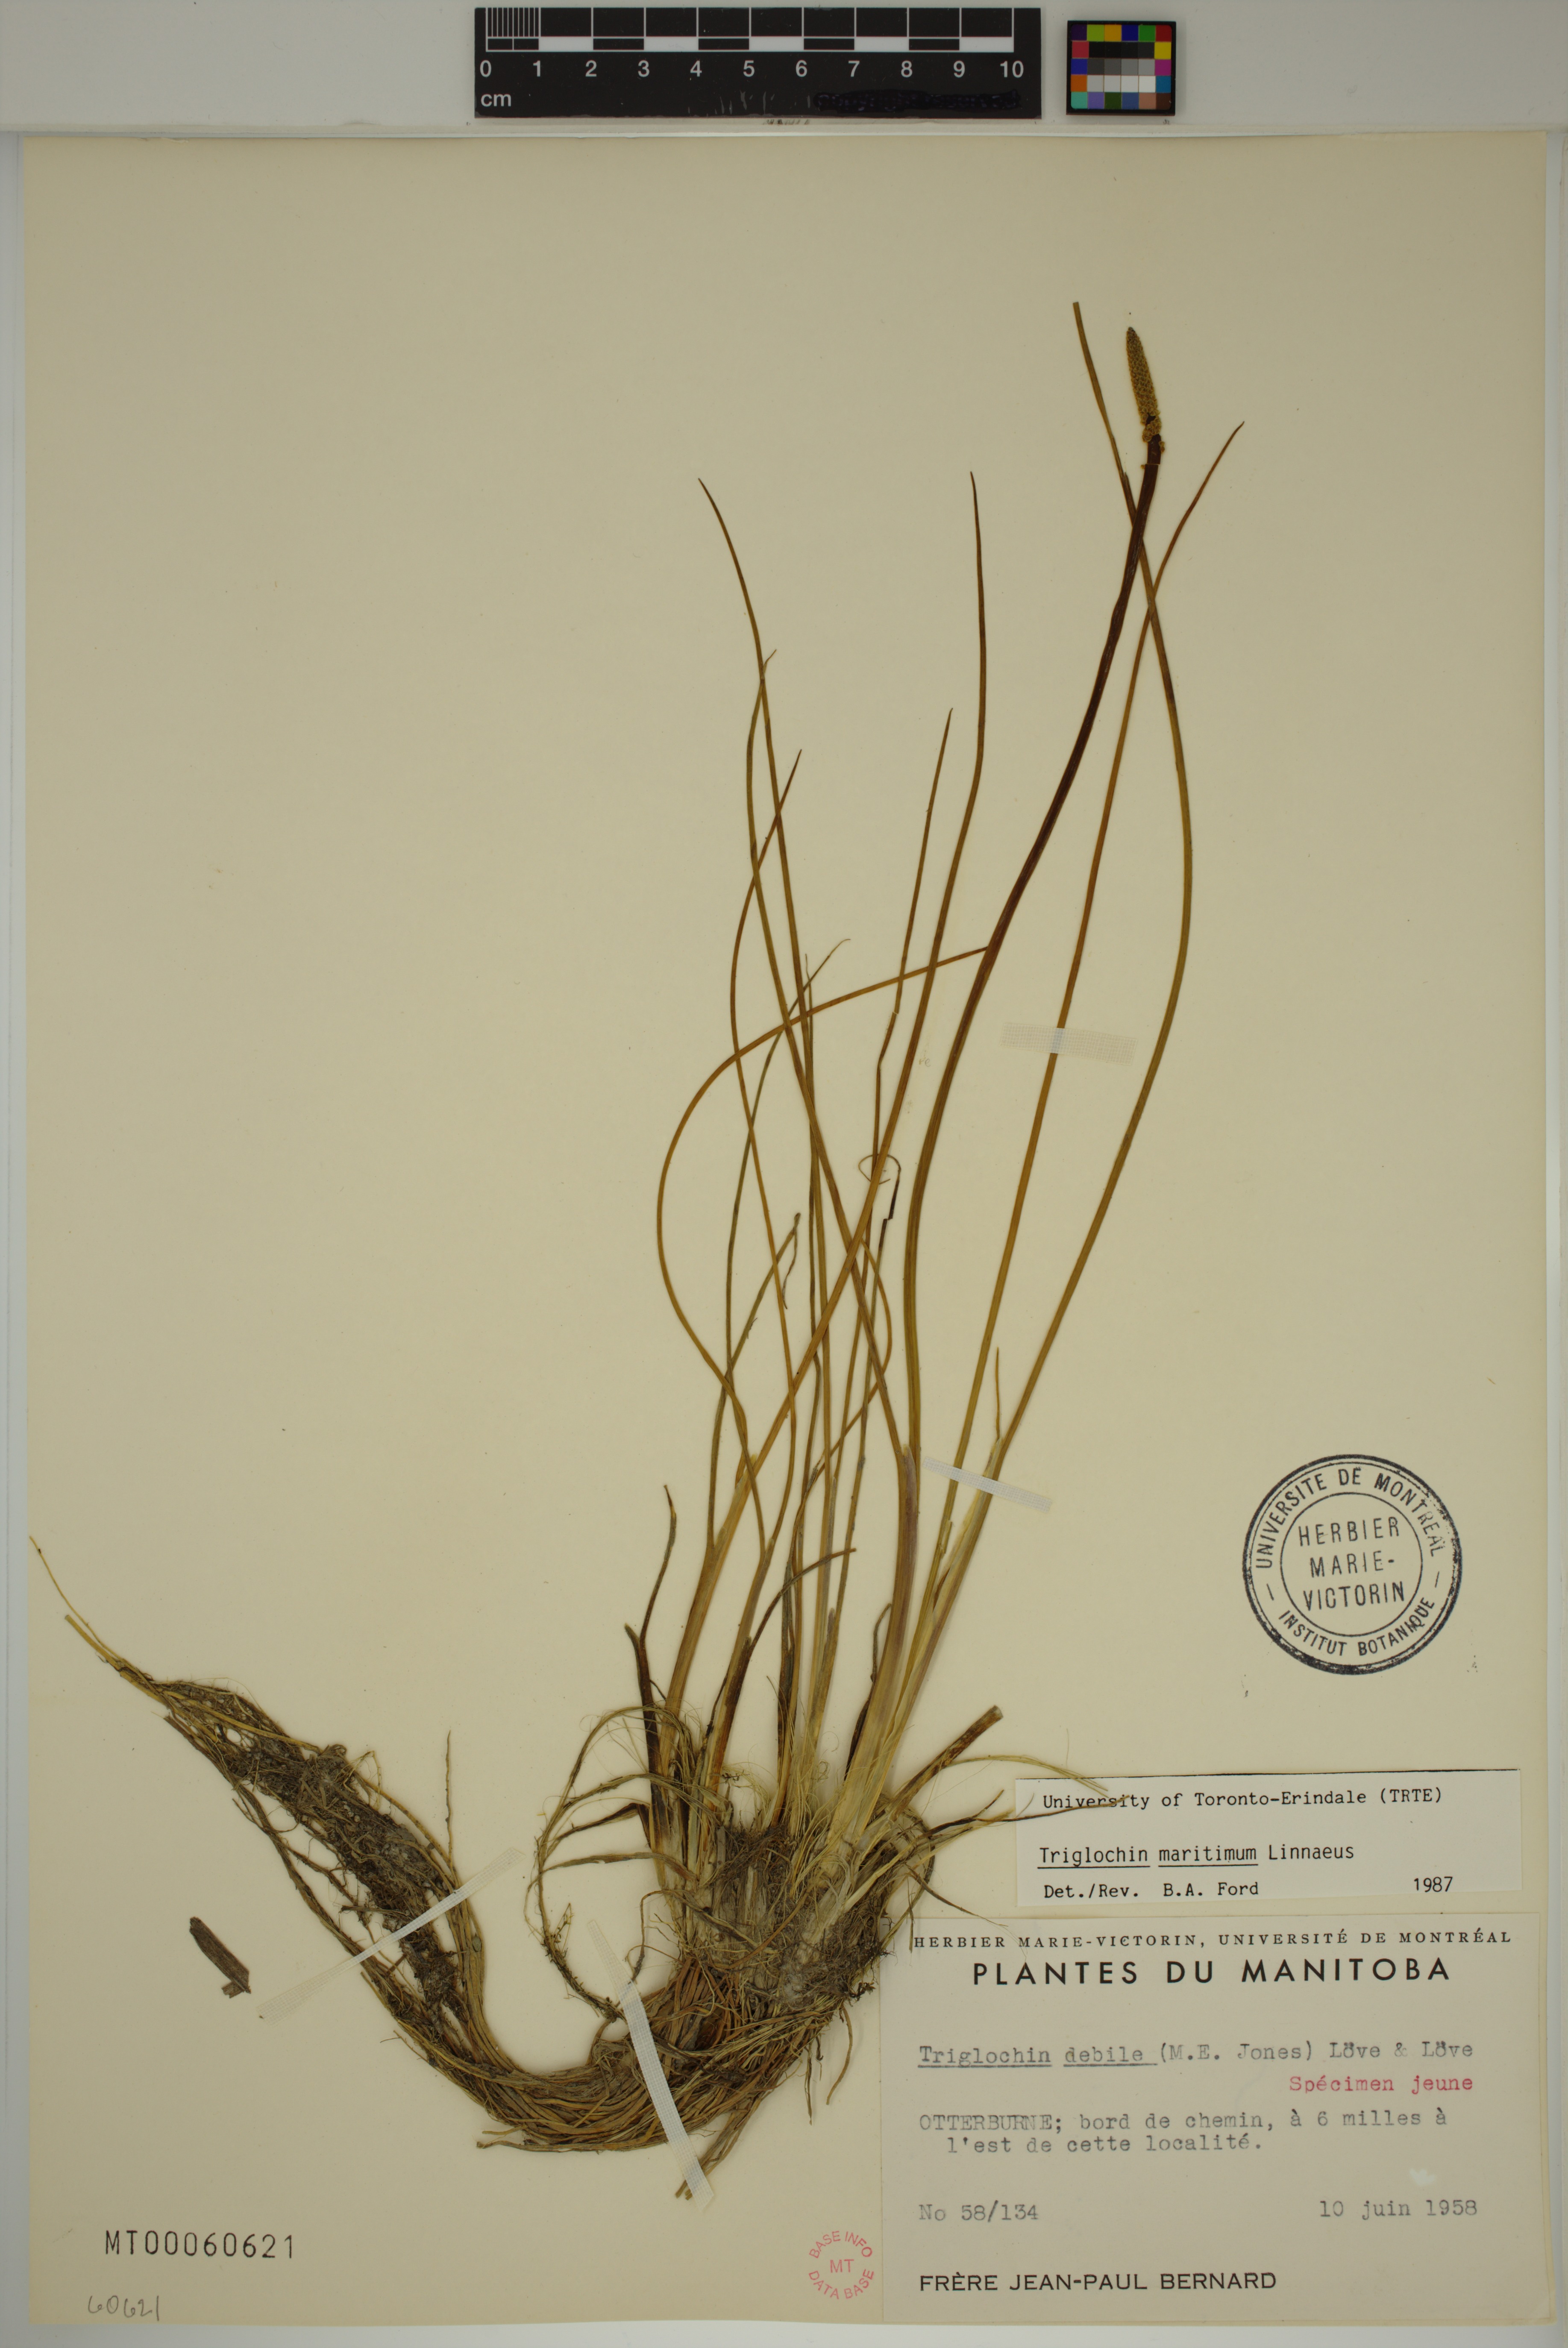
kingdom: Plantae
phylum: Tracheophyta
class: Liliopsida
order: Alismatales
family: Juncaginaceae
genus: Triglochin
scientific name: Triglochin maritima
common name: Sea arrowgrass
